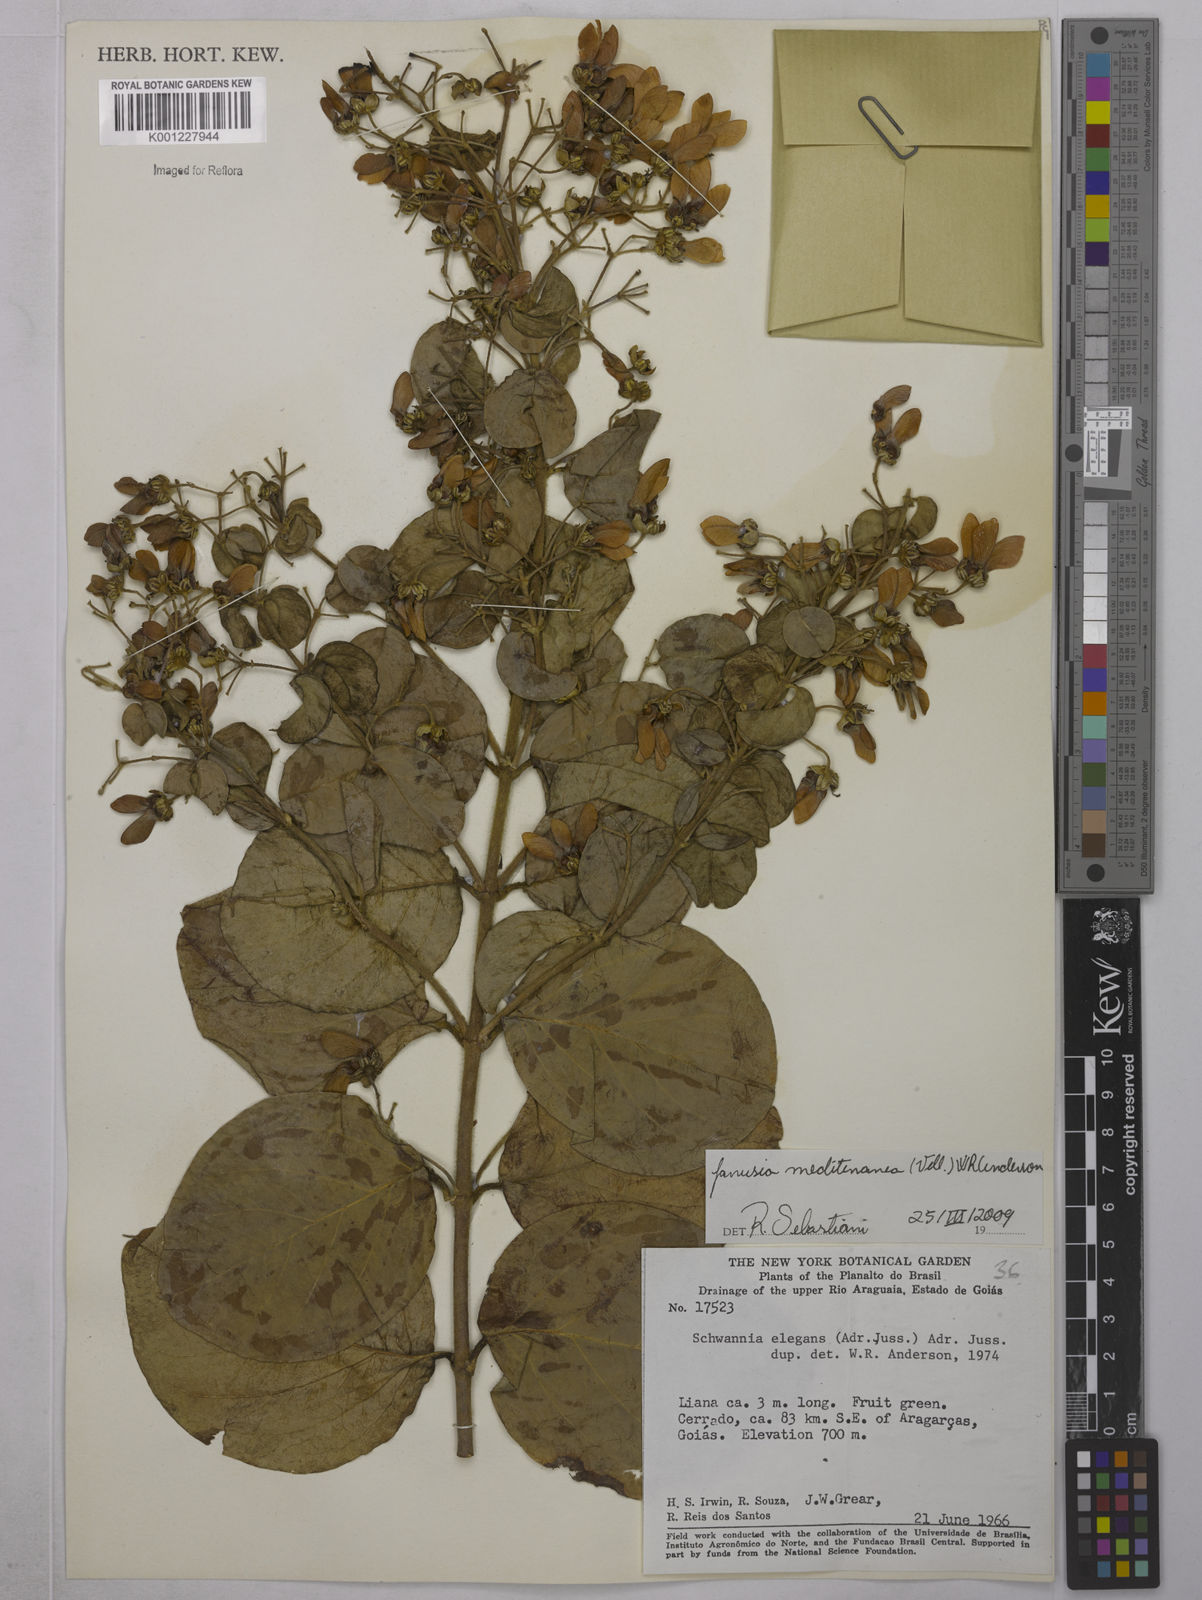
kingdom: Plantae
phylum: Tracheophyta
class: Magnoliopsida
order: Malpighiales
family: Malpighiaceae
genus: Janusia
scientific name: Janusia mediterranea
